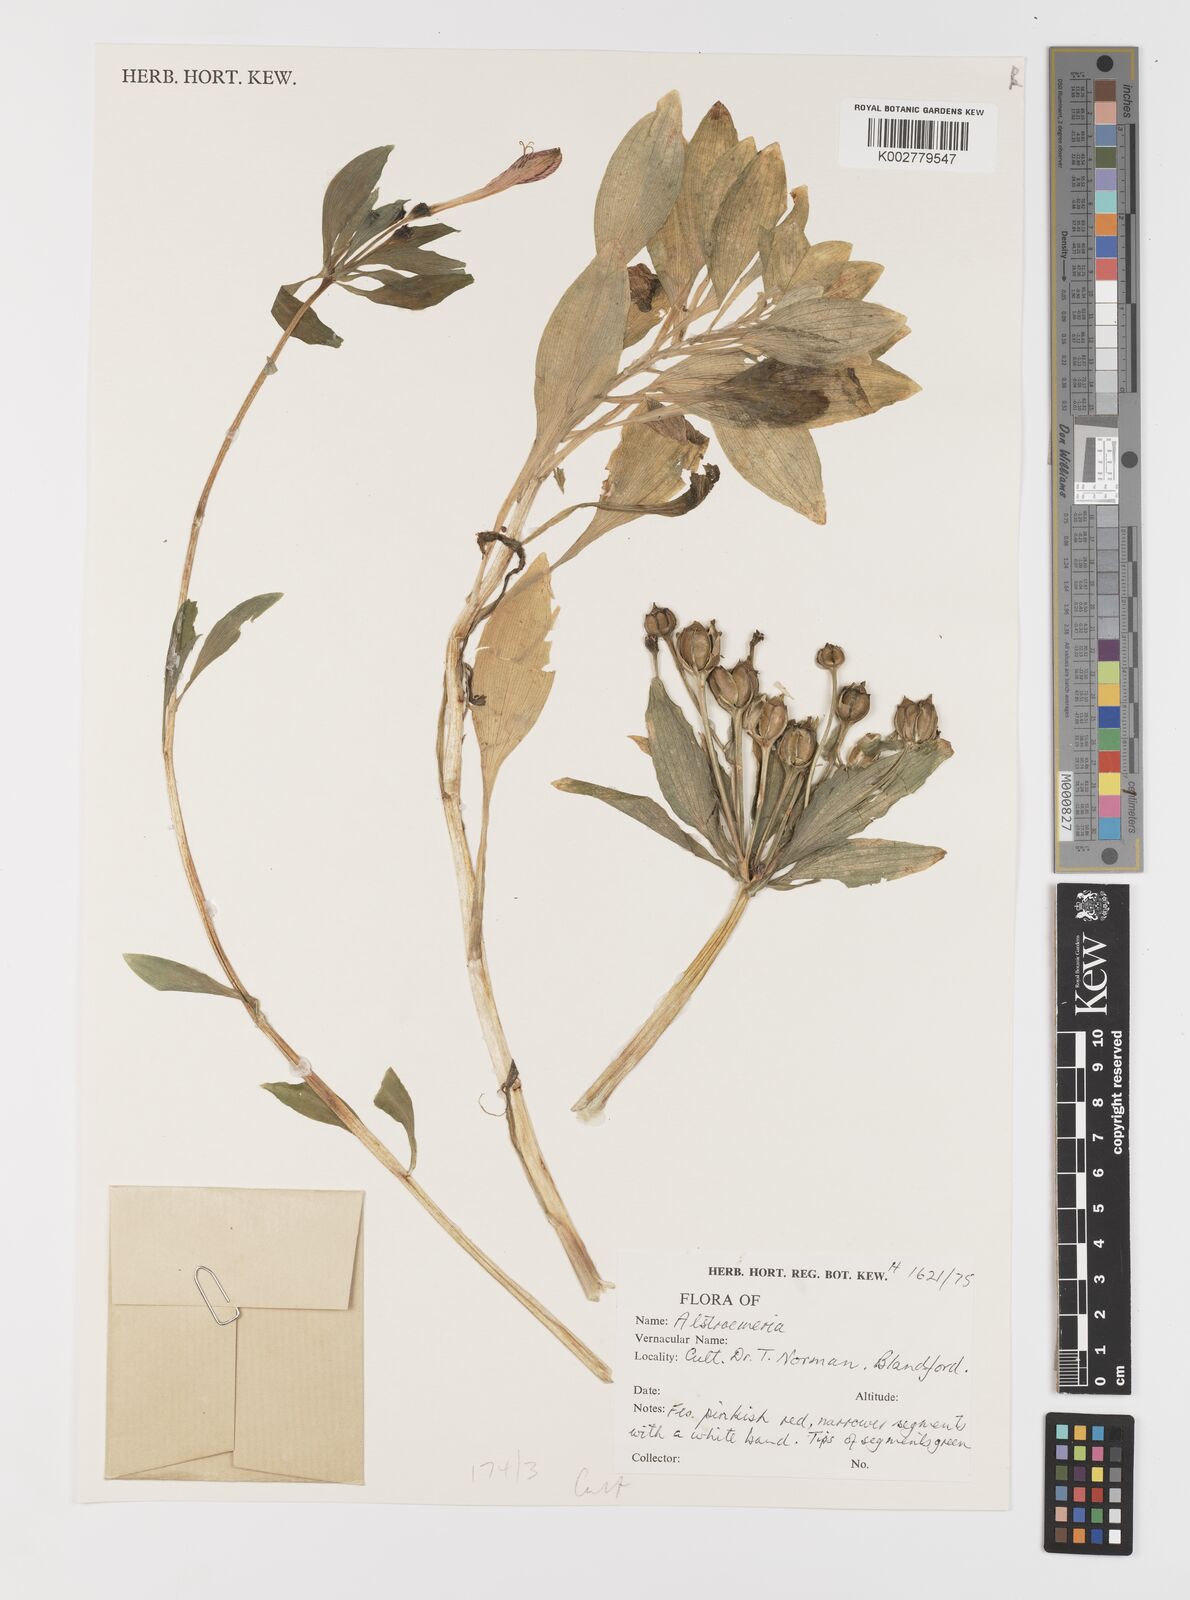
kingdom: Plantae
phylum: Tracheophyta
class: Liliopsida
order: Liliales
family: Alstroemeriaceae
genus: Alstroemeria
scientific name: Alstroemeria
